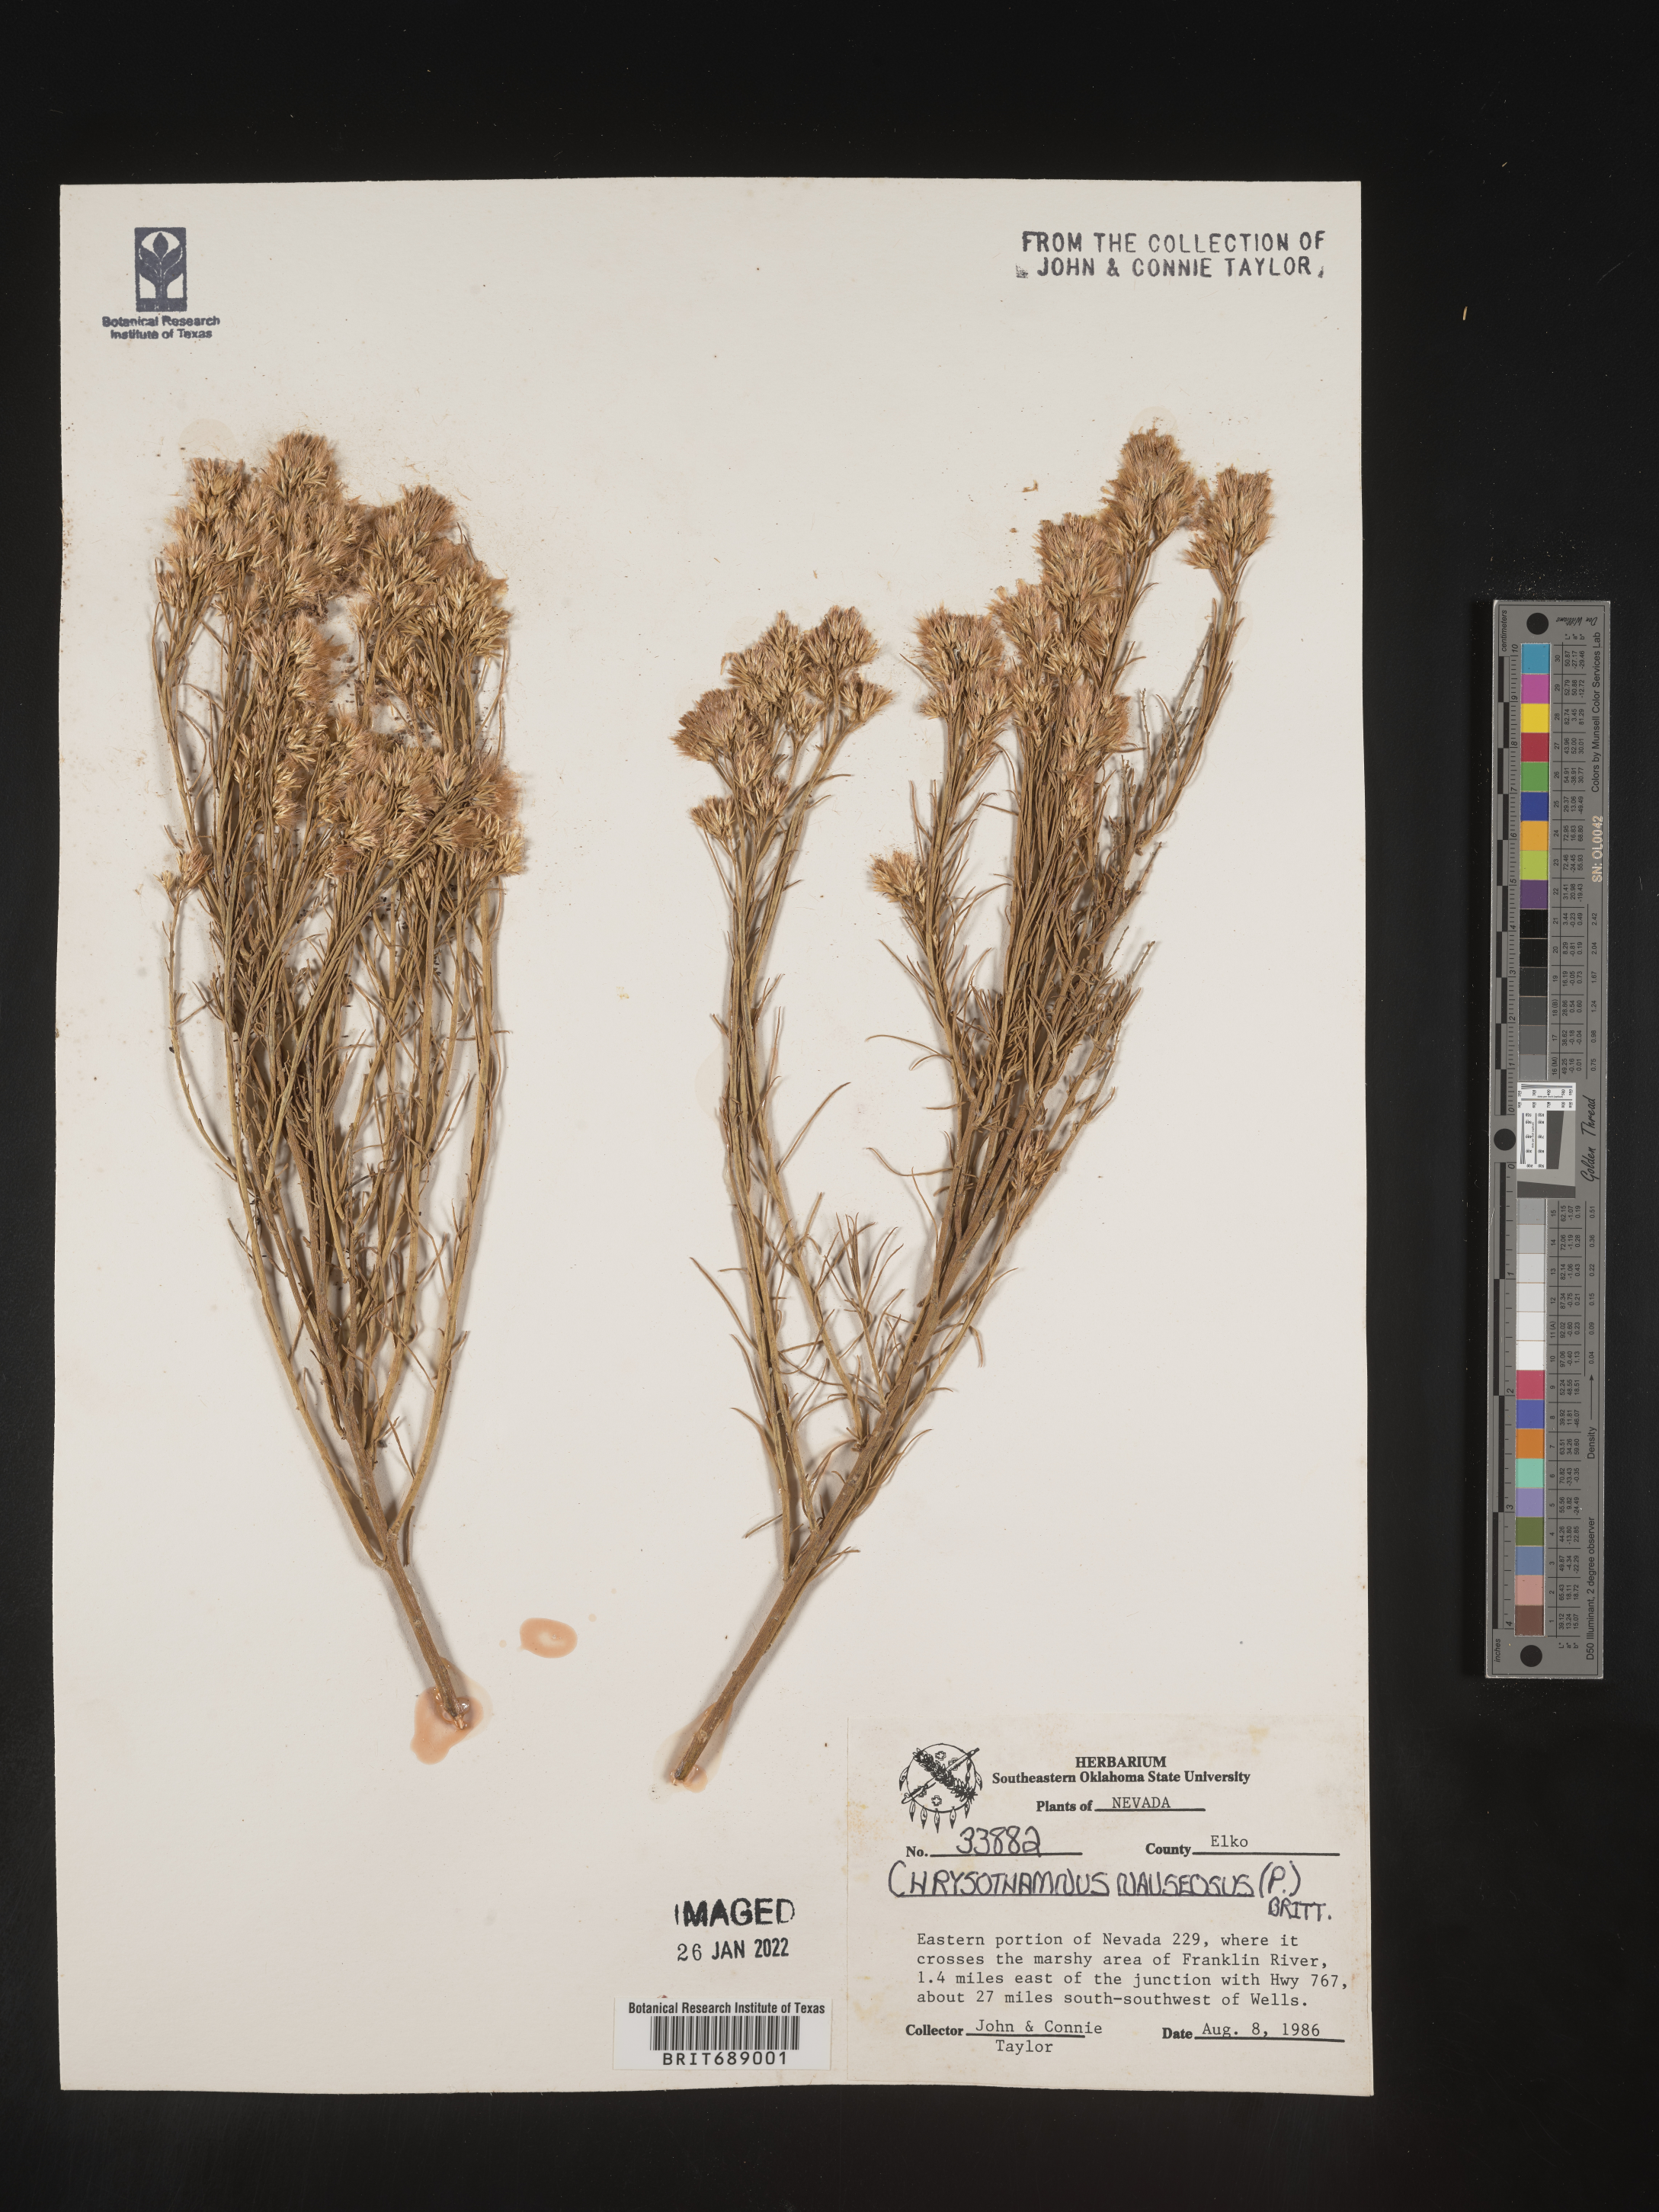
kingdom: Plantae
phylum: Tracheophyta
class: Magnoliopsida
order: Asterales
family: Asteraceae
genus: Ericameria
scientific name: Ericameria nauseosa
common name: Rubber rabbitbrush
